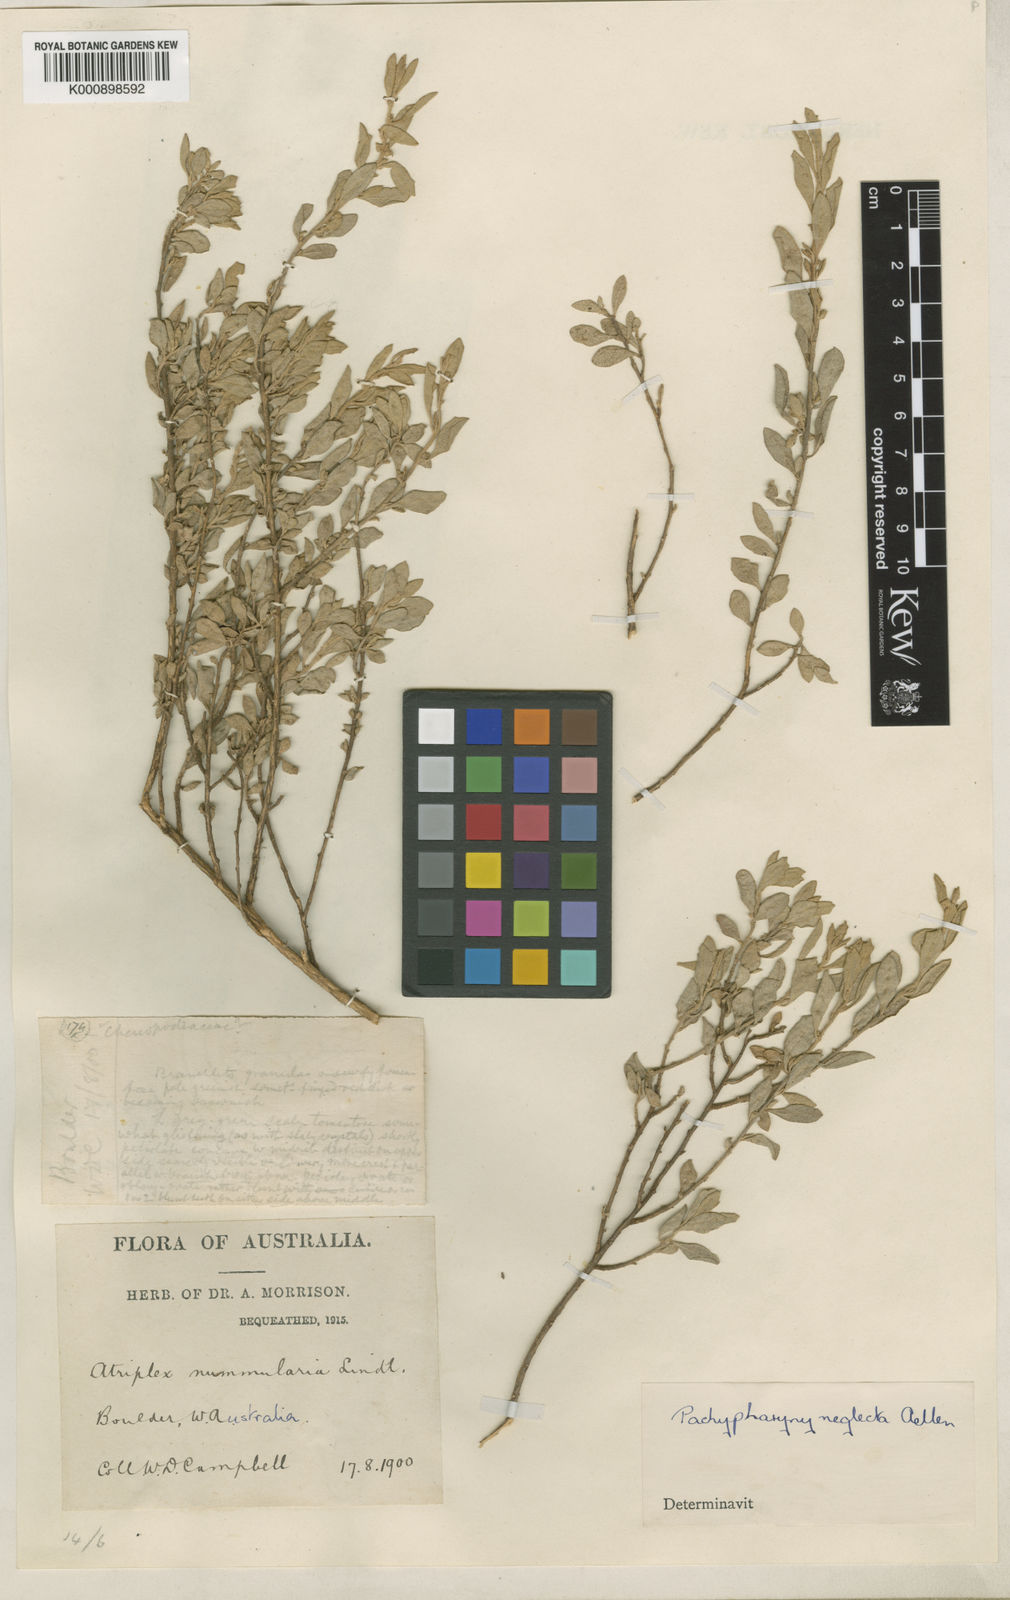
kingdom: Plantae
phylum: Tracheophyta
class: Magnoliopsida
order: Caryophyllales
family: Amaranthaceae
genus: Atriplex
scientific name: Atriplex hymenotheca
